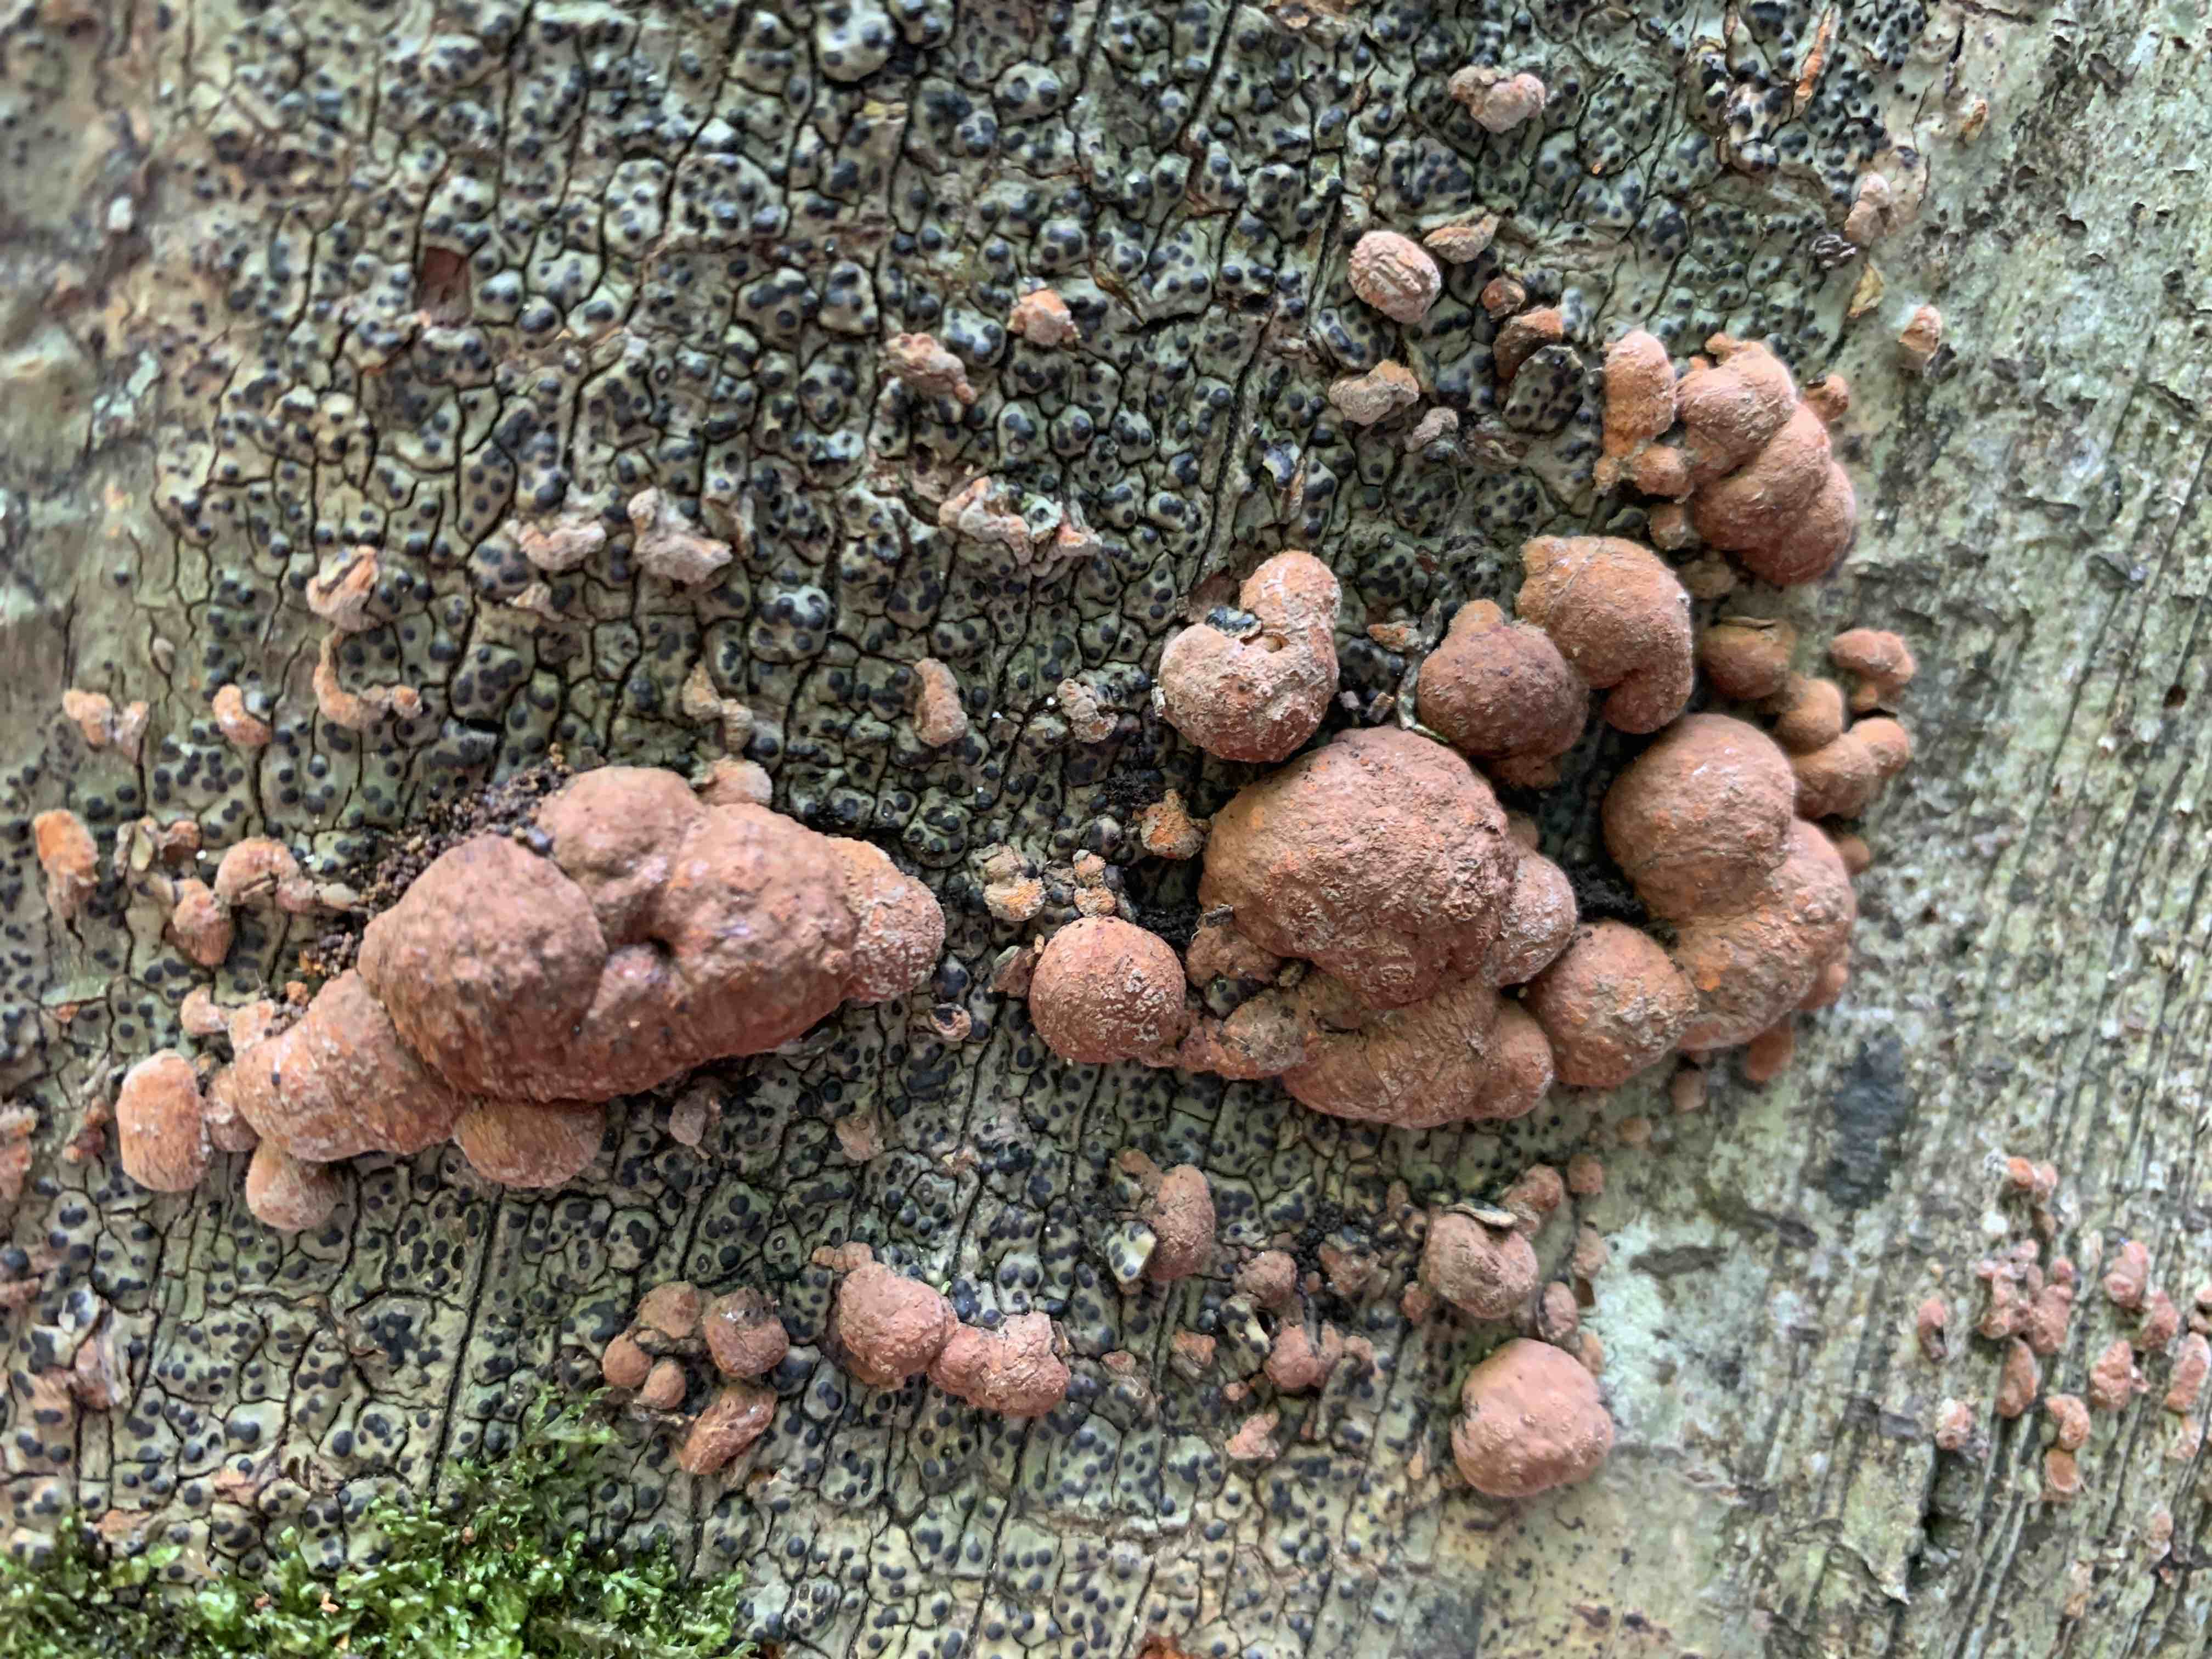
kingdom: Fungi
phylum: Ascomycota
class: Sordariomycetes
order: Xylariales
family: Hypoxylaceae
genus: Hypoxylon
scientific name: Hypoxylon fragiforme
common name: kuljordbær
